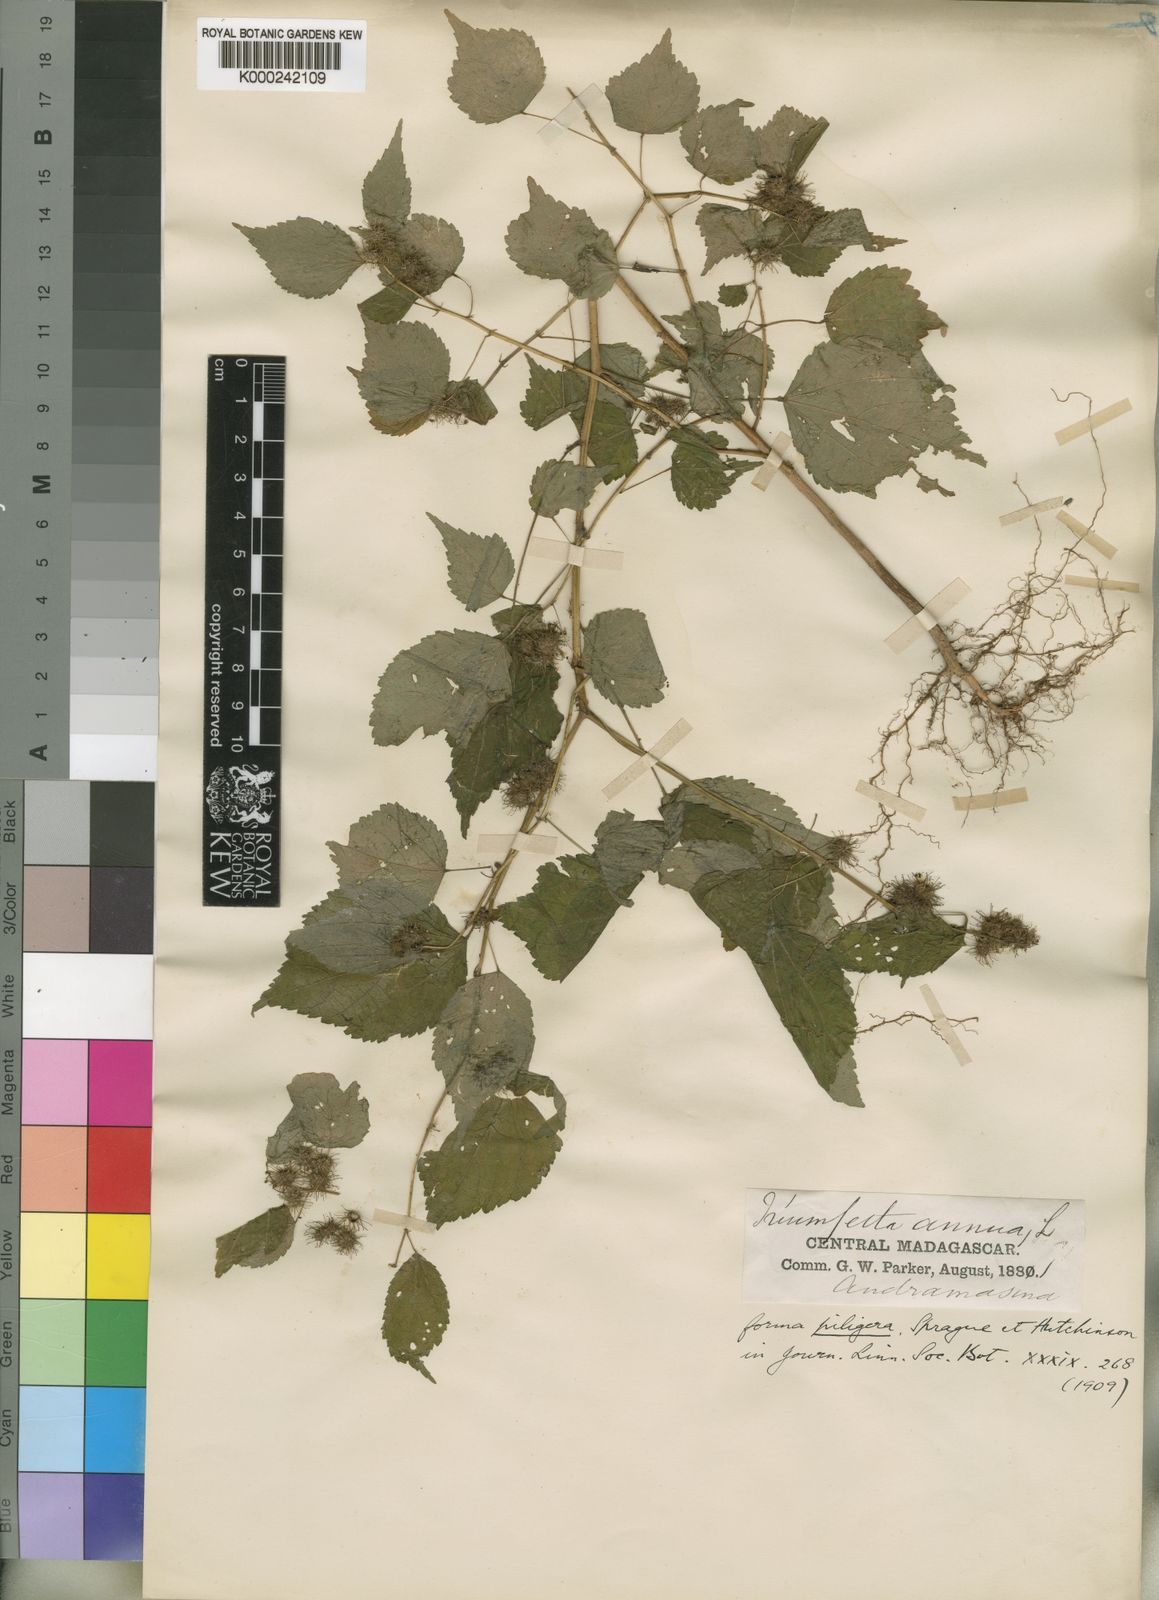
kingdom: Plantae
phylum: Tracheophyta
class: Magnoliopsida
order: Malvales
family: Malvaceae
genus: Triumfetta
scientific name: Triumfetta annua
